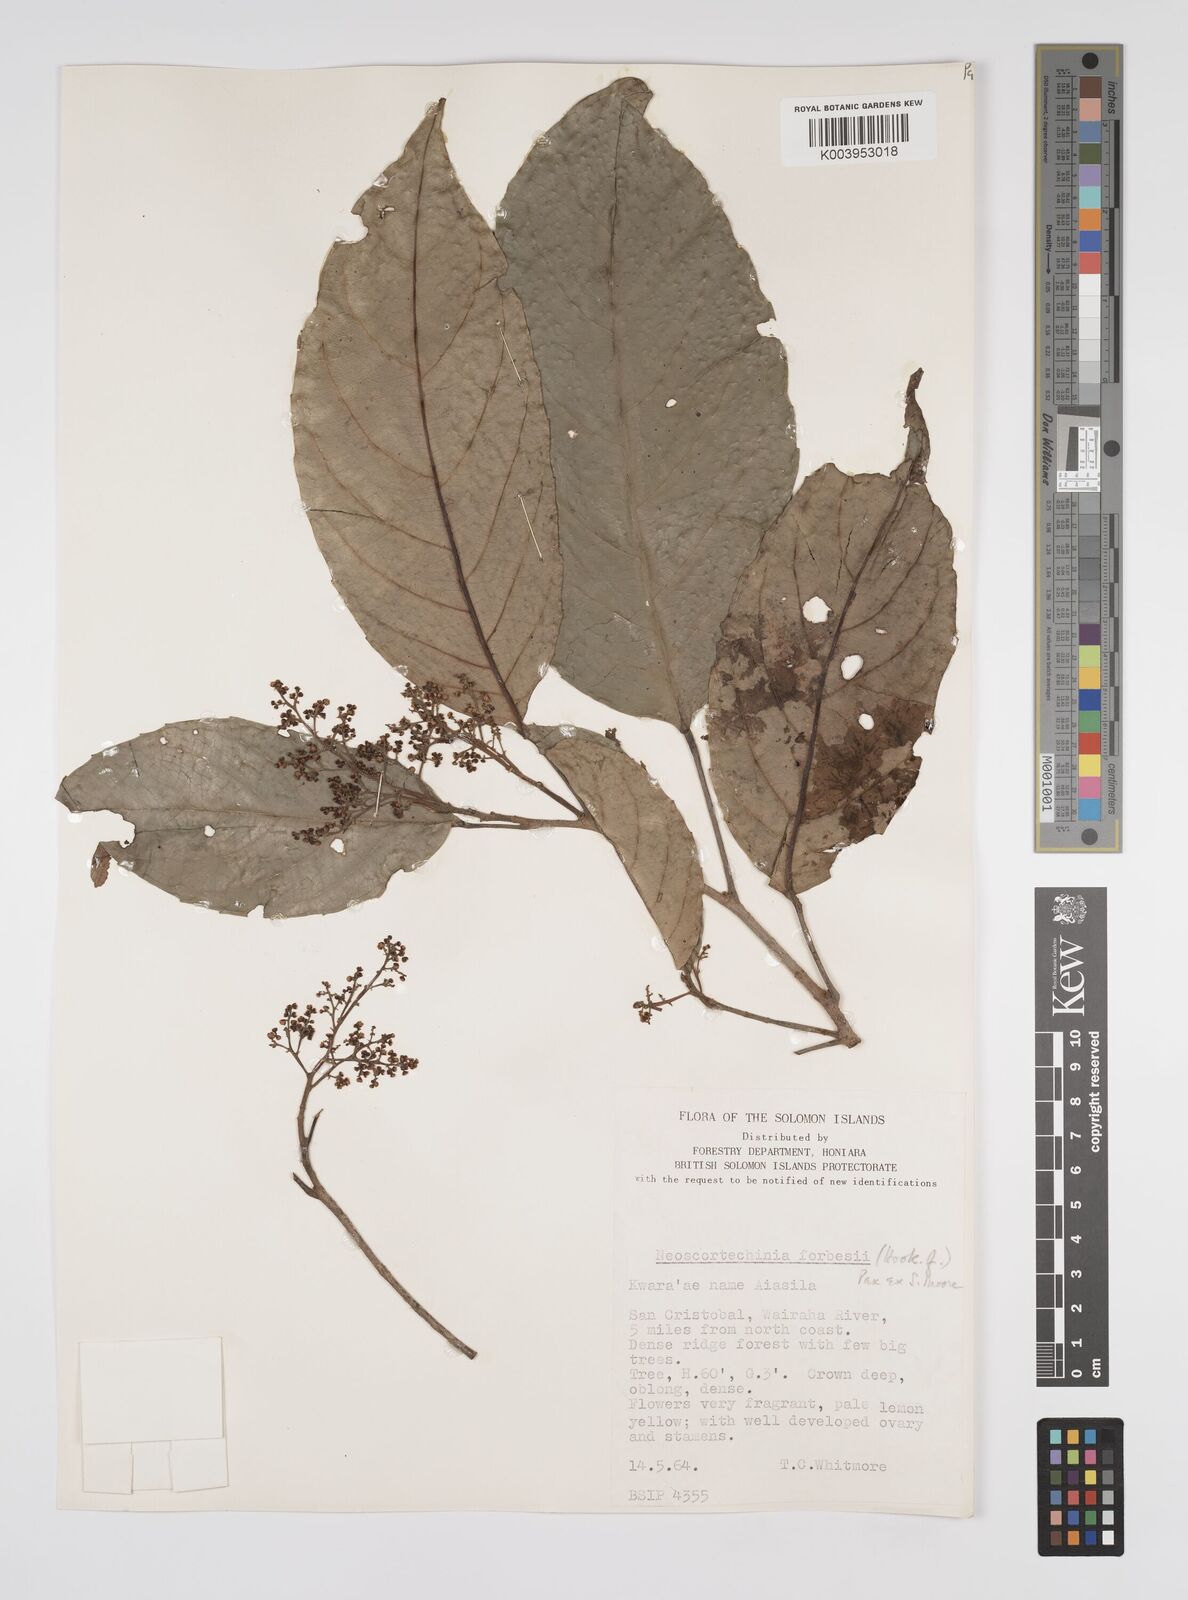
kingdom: Plantae
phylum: Tracheophyta
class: Magnoliopsida
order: Malpighiales
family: Euphorbiaceae
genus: Neoscortechinia
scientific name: Neoscortechinia forbesii
